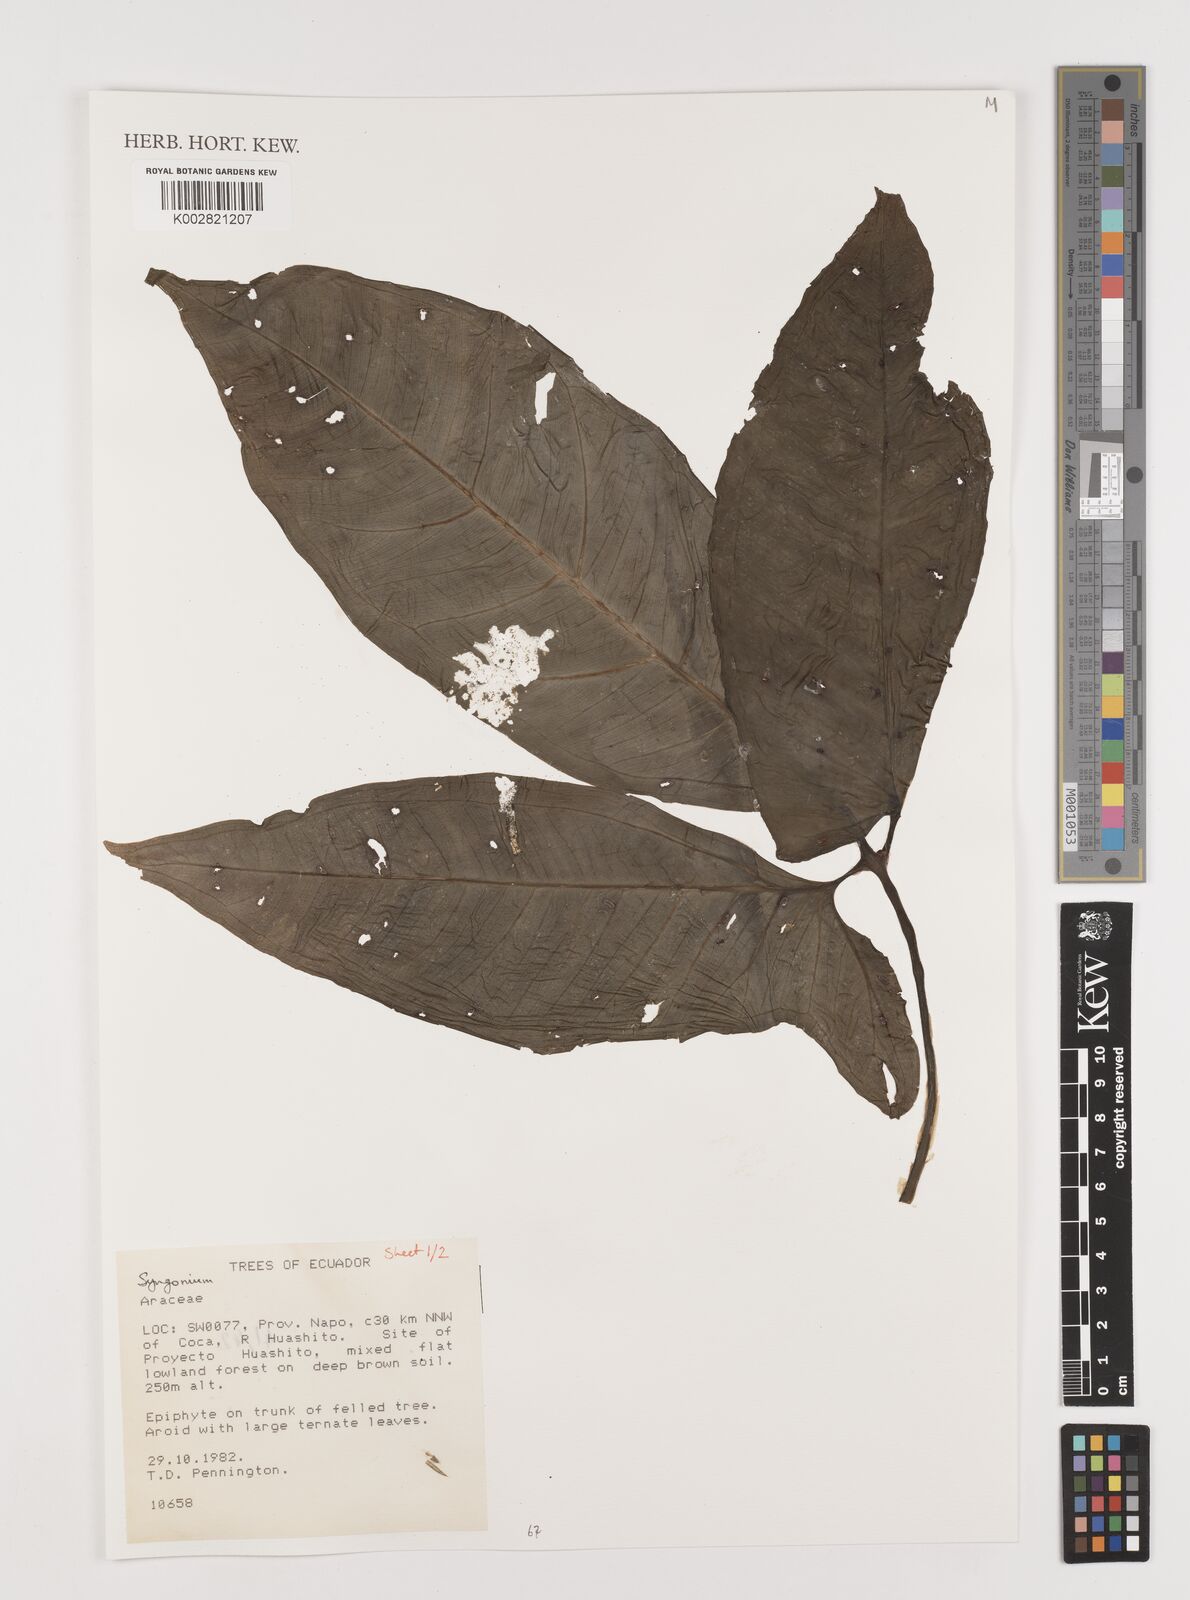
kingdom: Plantae
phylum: Tracheophyta
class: Liliopsida
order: Alismatales
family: Araceae
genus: Syngonium
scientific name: Syngonium
